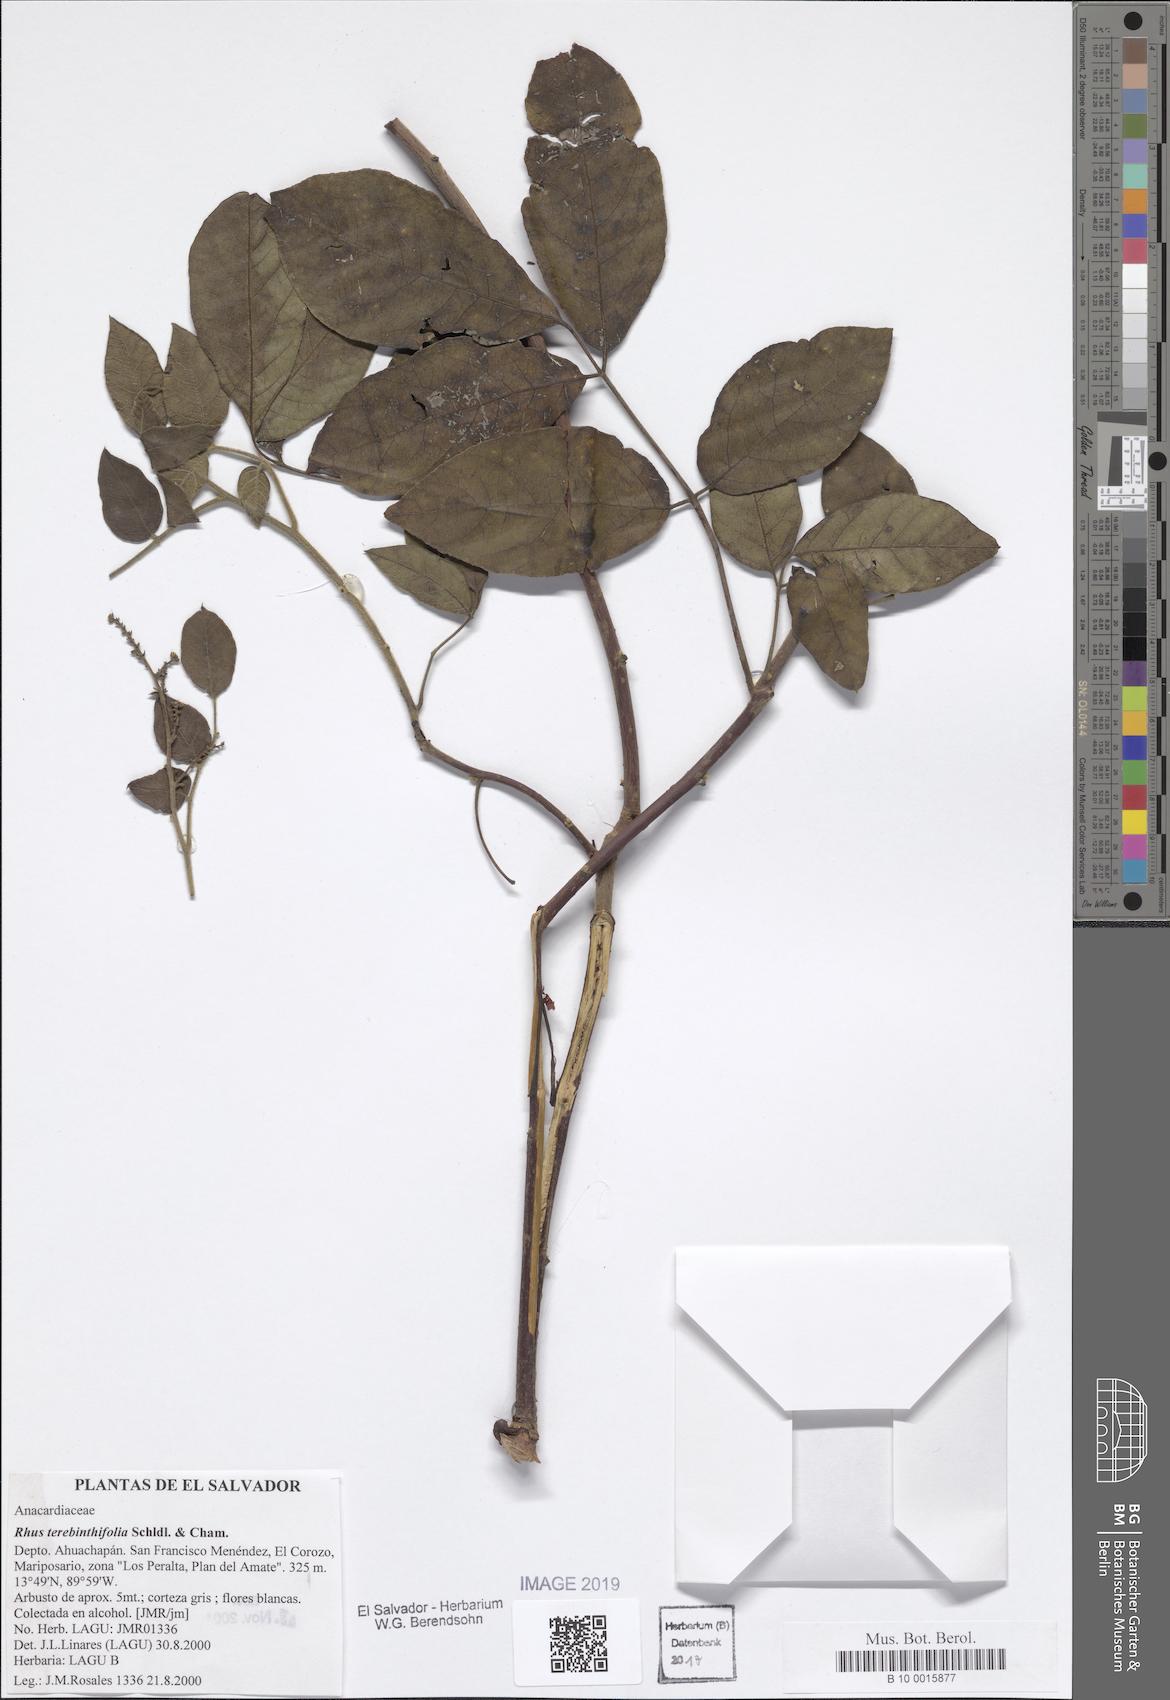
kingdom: Plantae
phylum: Tracheophyta
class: Magnoliopsida
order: Sapindales
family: Anacardiaceae
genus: Rhus
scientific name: Rhus terebinthifolia
